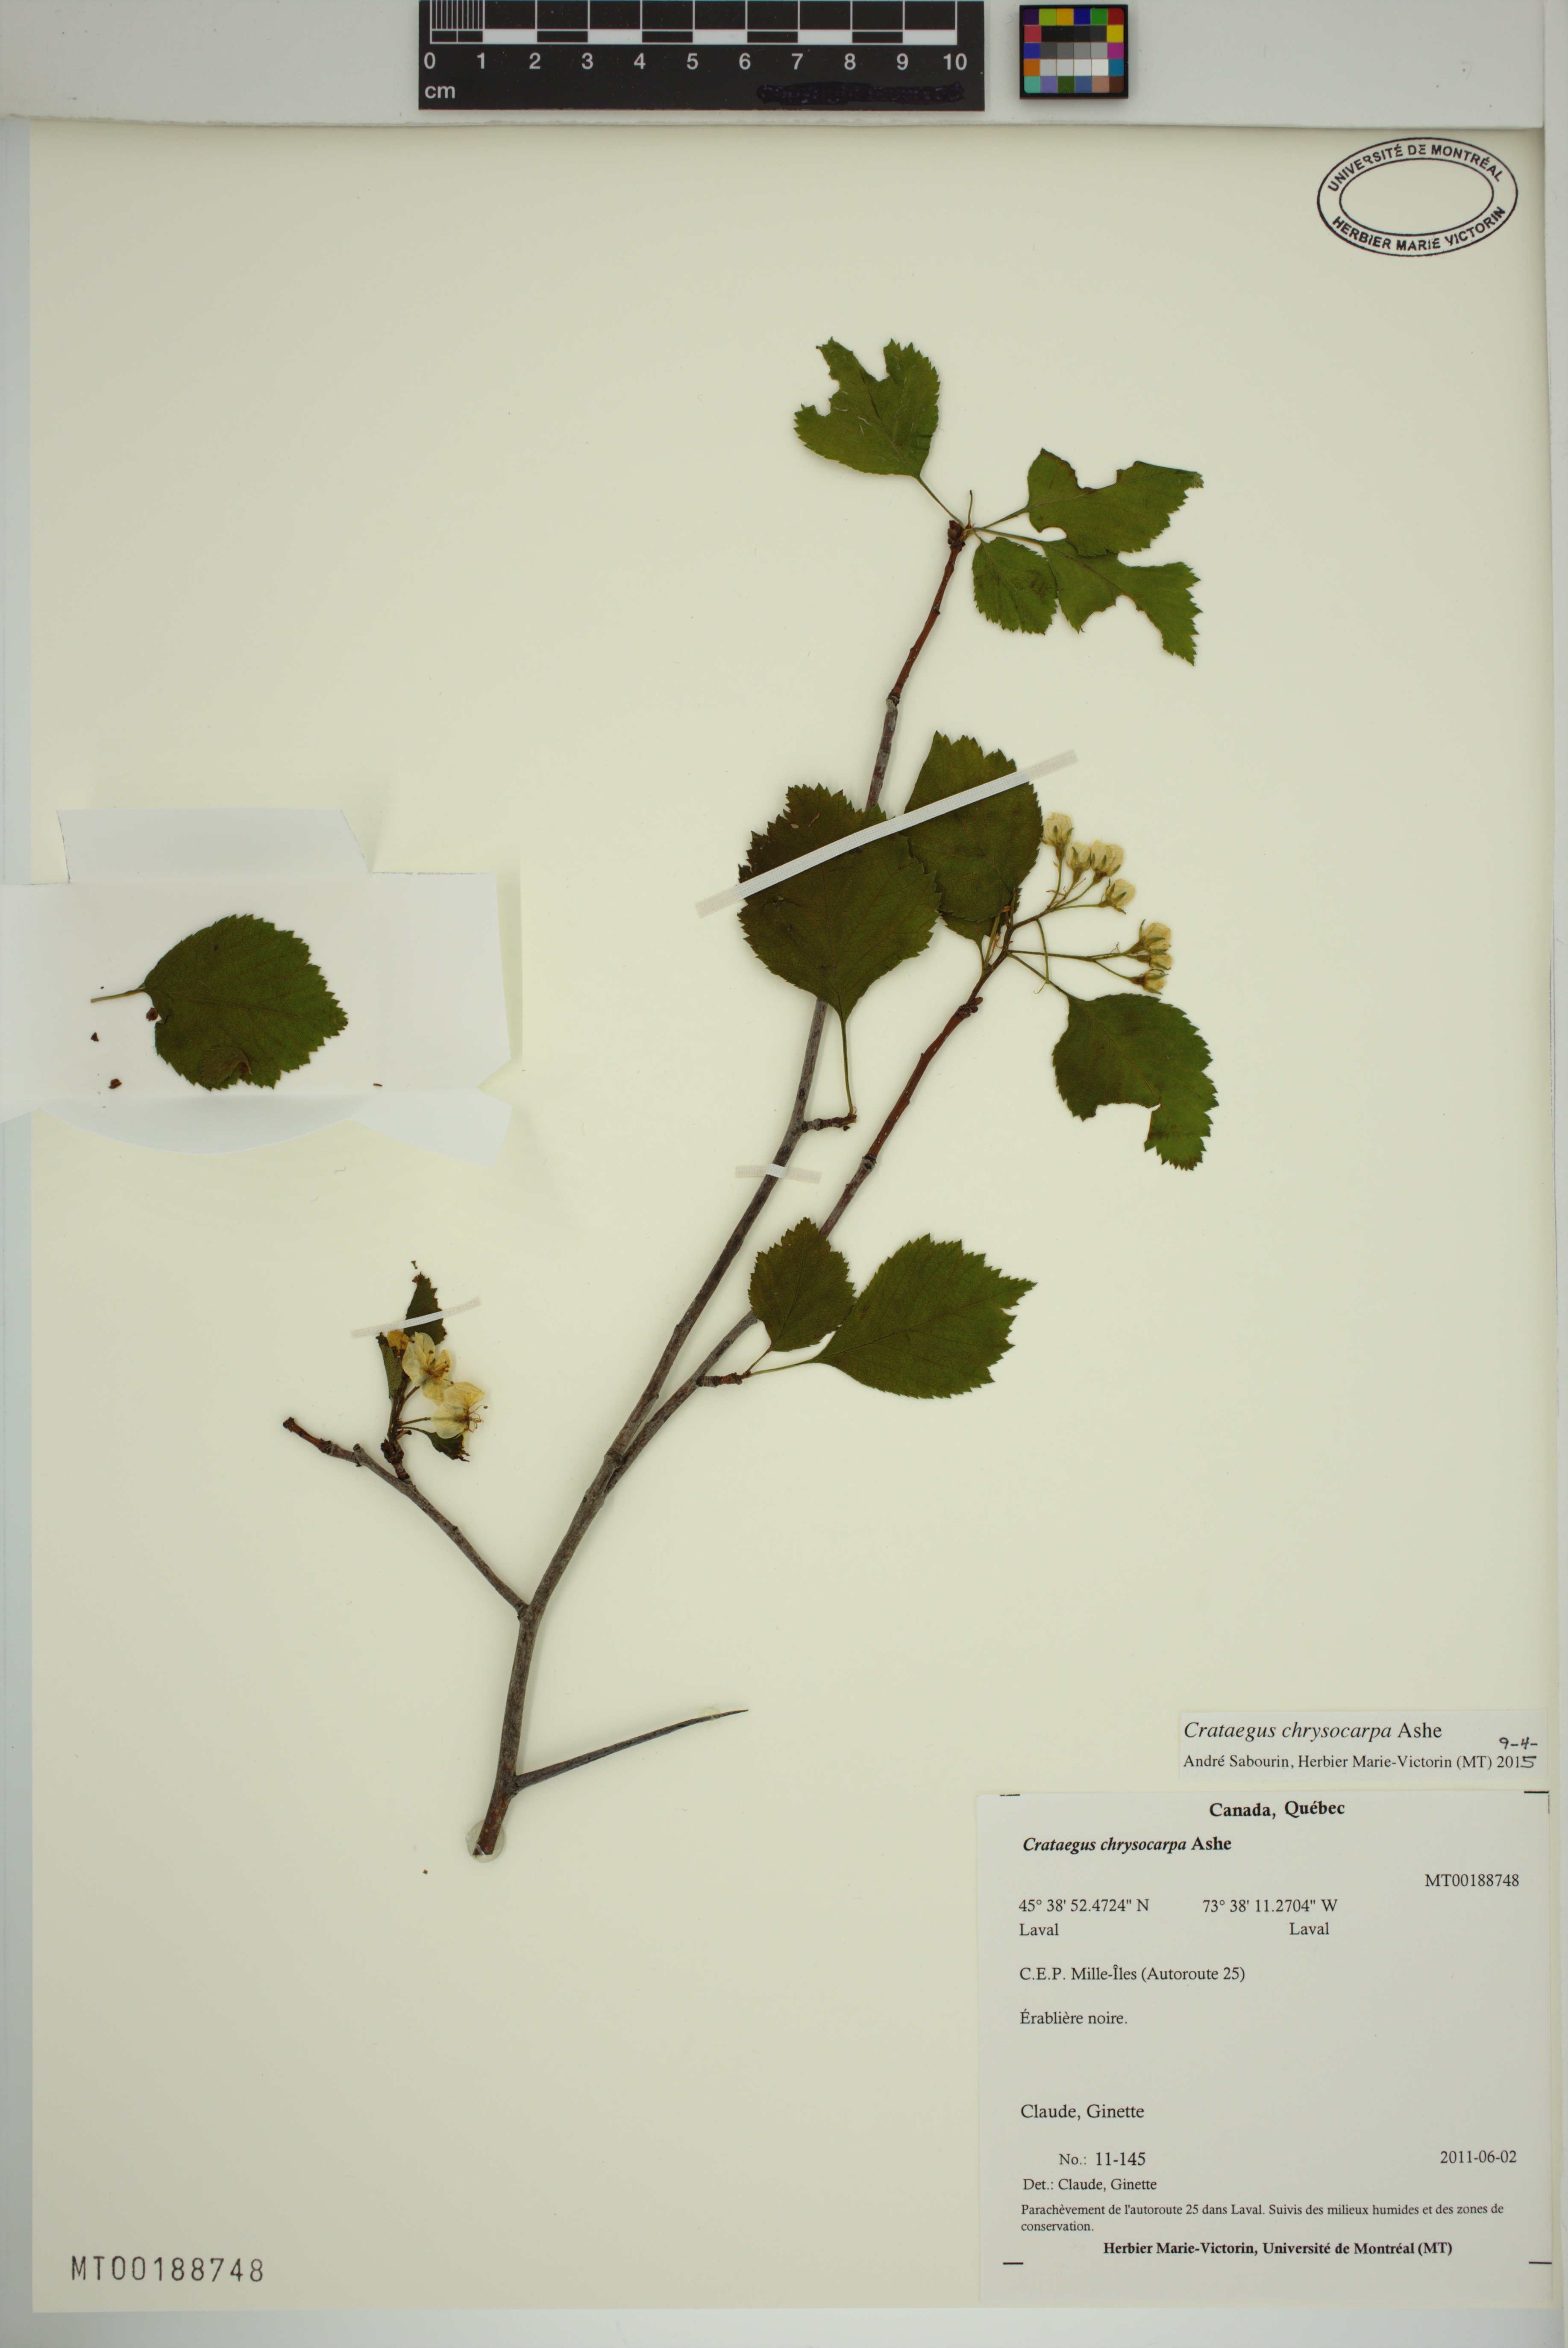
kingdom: Plantae
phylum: Tracheophyta
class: Magnoliopsida
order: Rosales
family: Rosaceae
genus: Crataegus
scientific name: Crataegus chrysocarpa
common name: Fire-berry hawthorn
